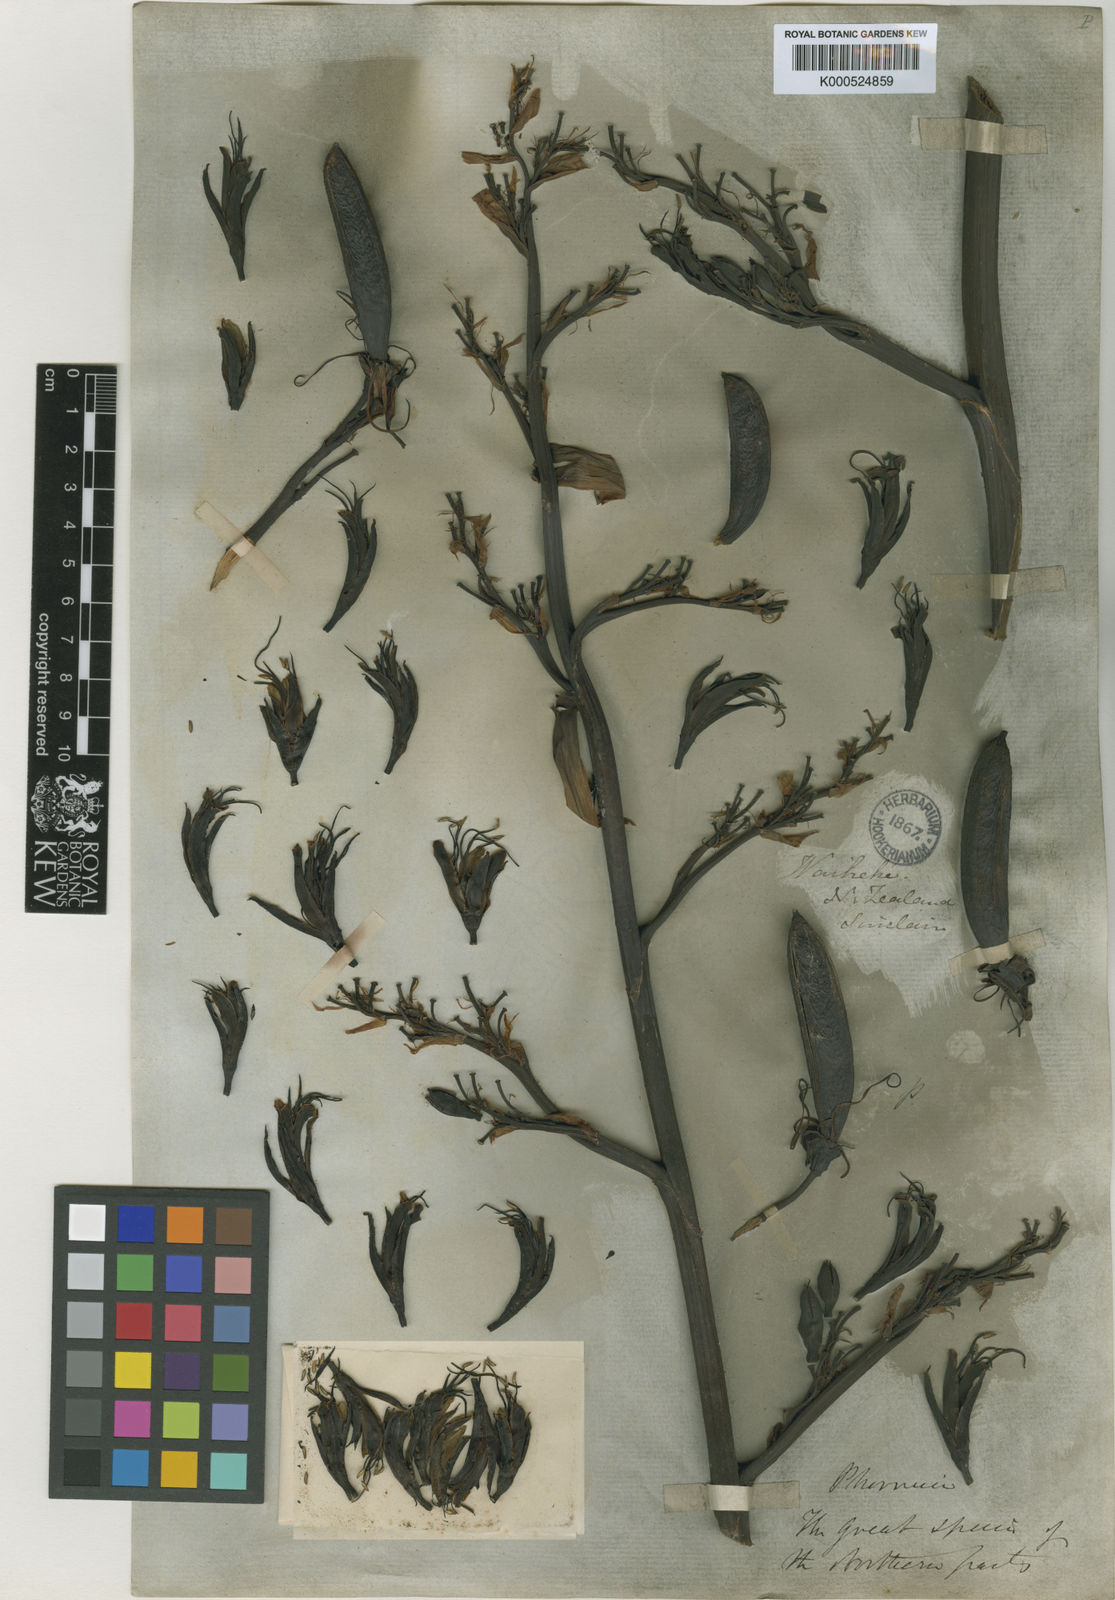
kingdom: Plantae
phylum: Tracheophyta
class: Liliopsida
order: Asparagales
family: Asphodelaceae
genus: Phormium
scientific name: Phormium tenax
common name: New zealand flax
